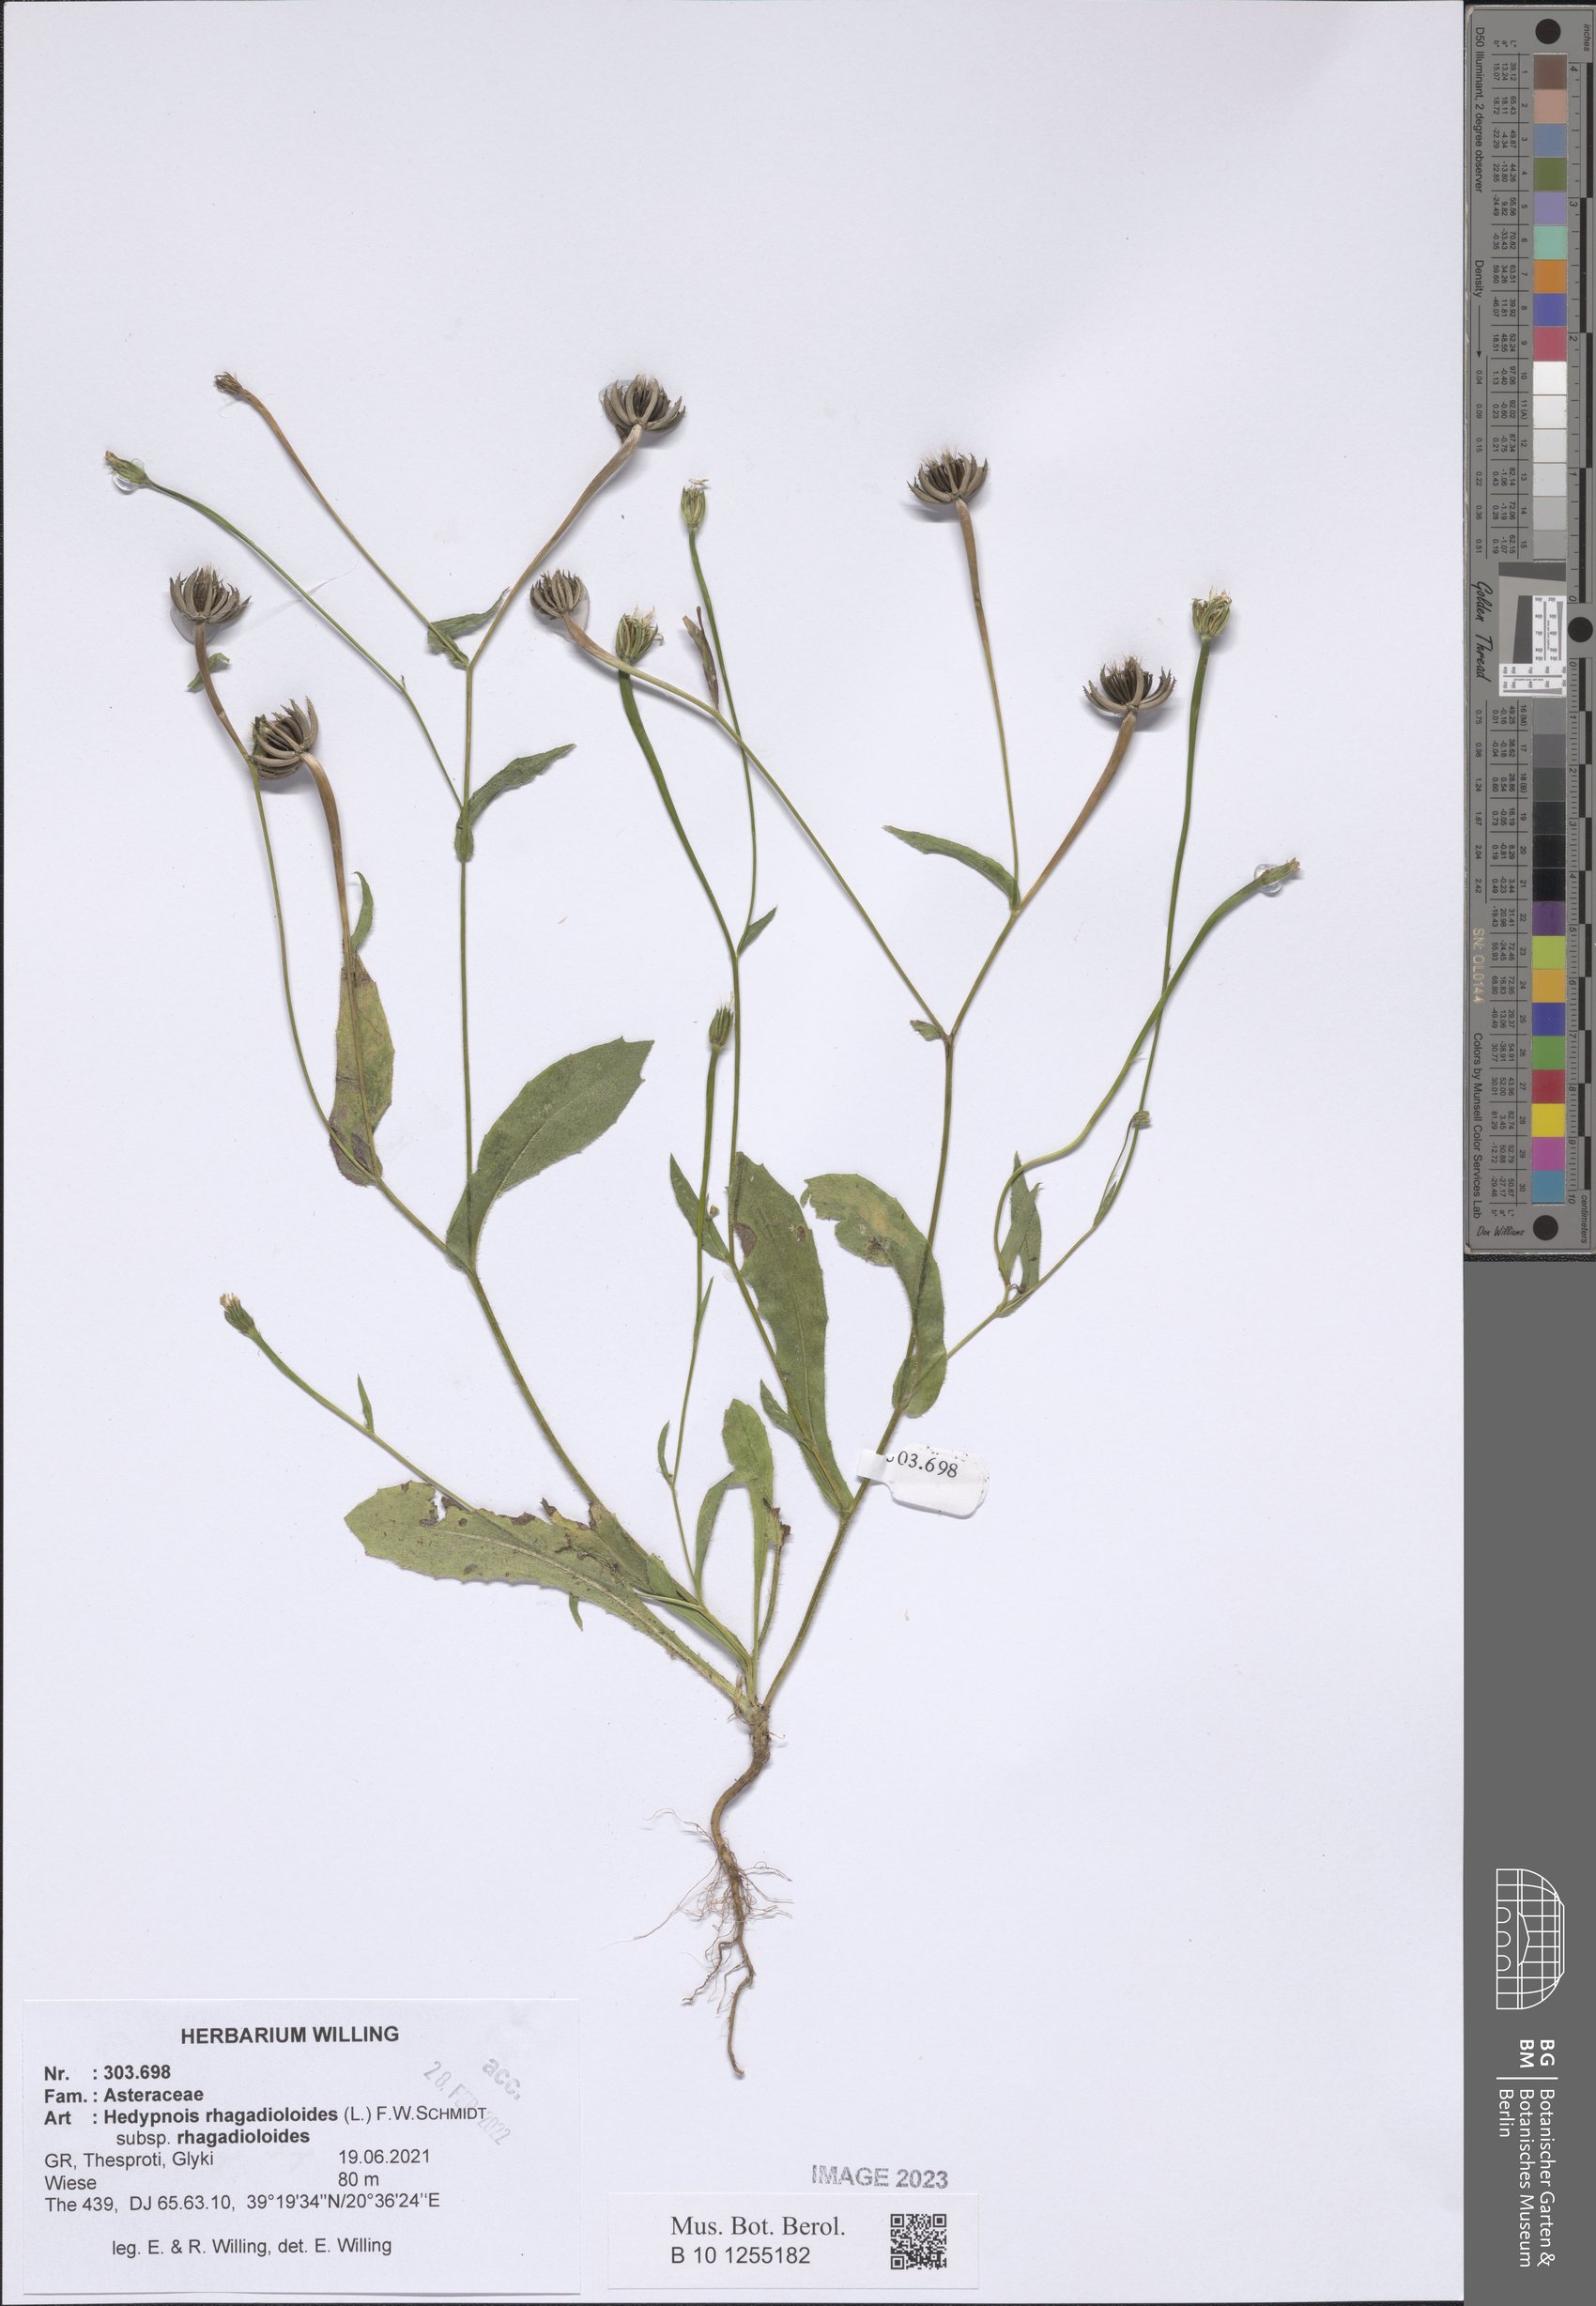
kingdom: Plantae
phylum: Tracheophyta
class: Magnoliopsida
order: Asterales
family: Asteraceae
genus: Hedypnois
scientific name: Hedypnois rhagadioloides
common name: Cretan weed
